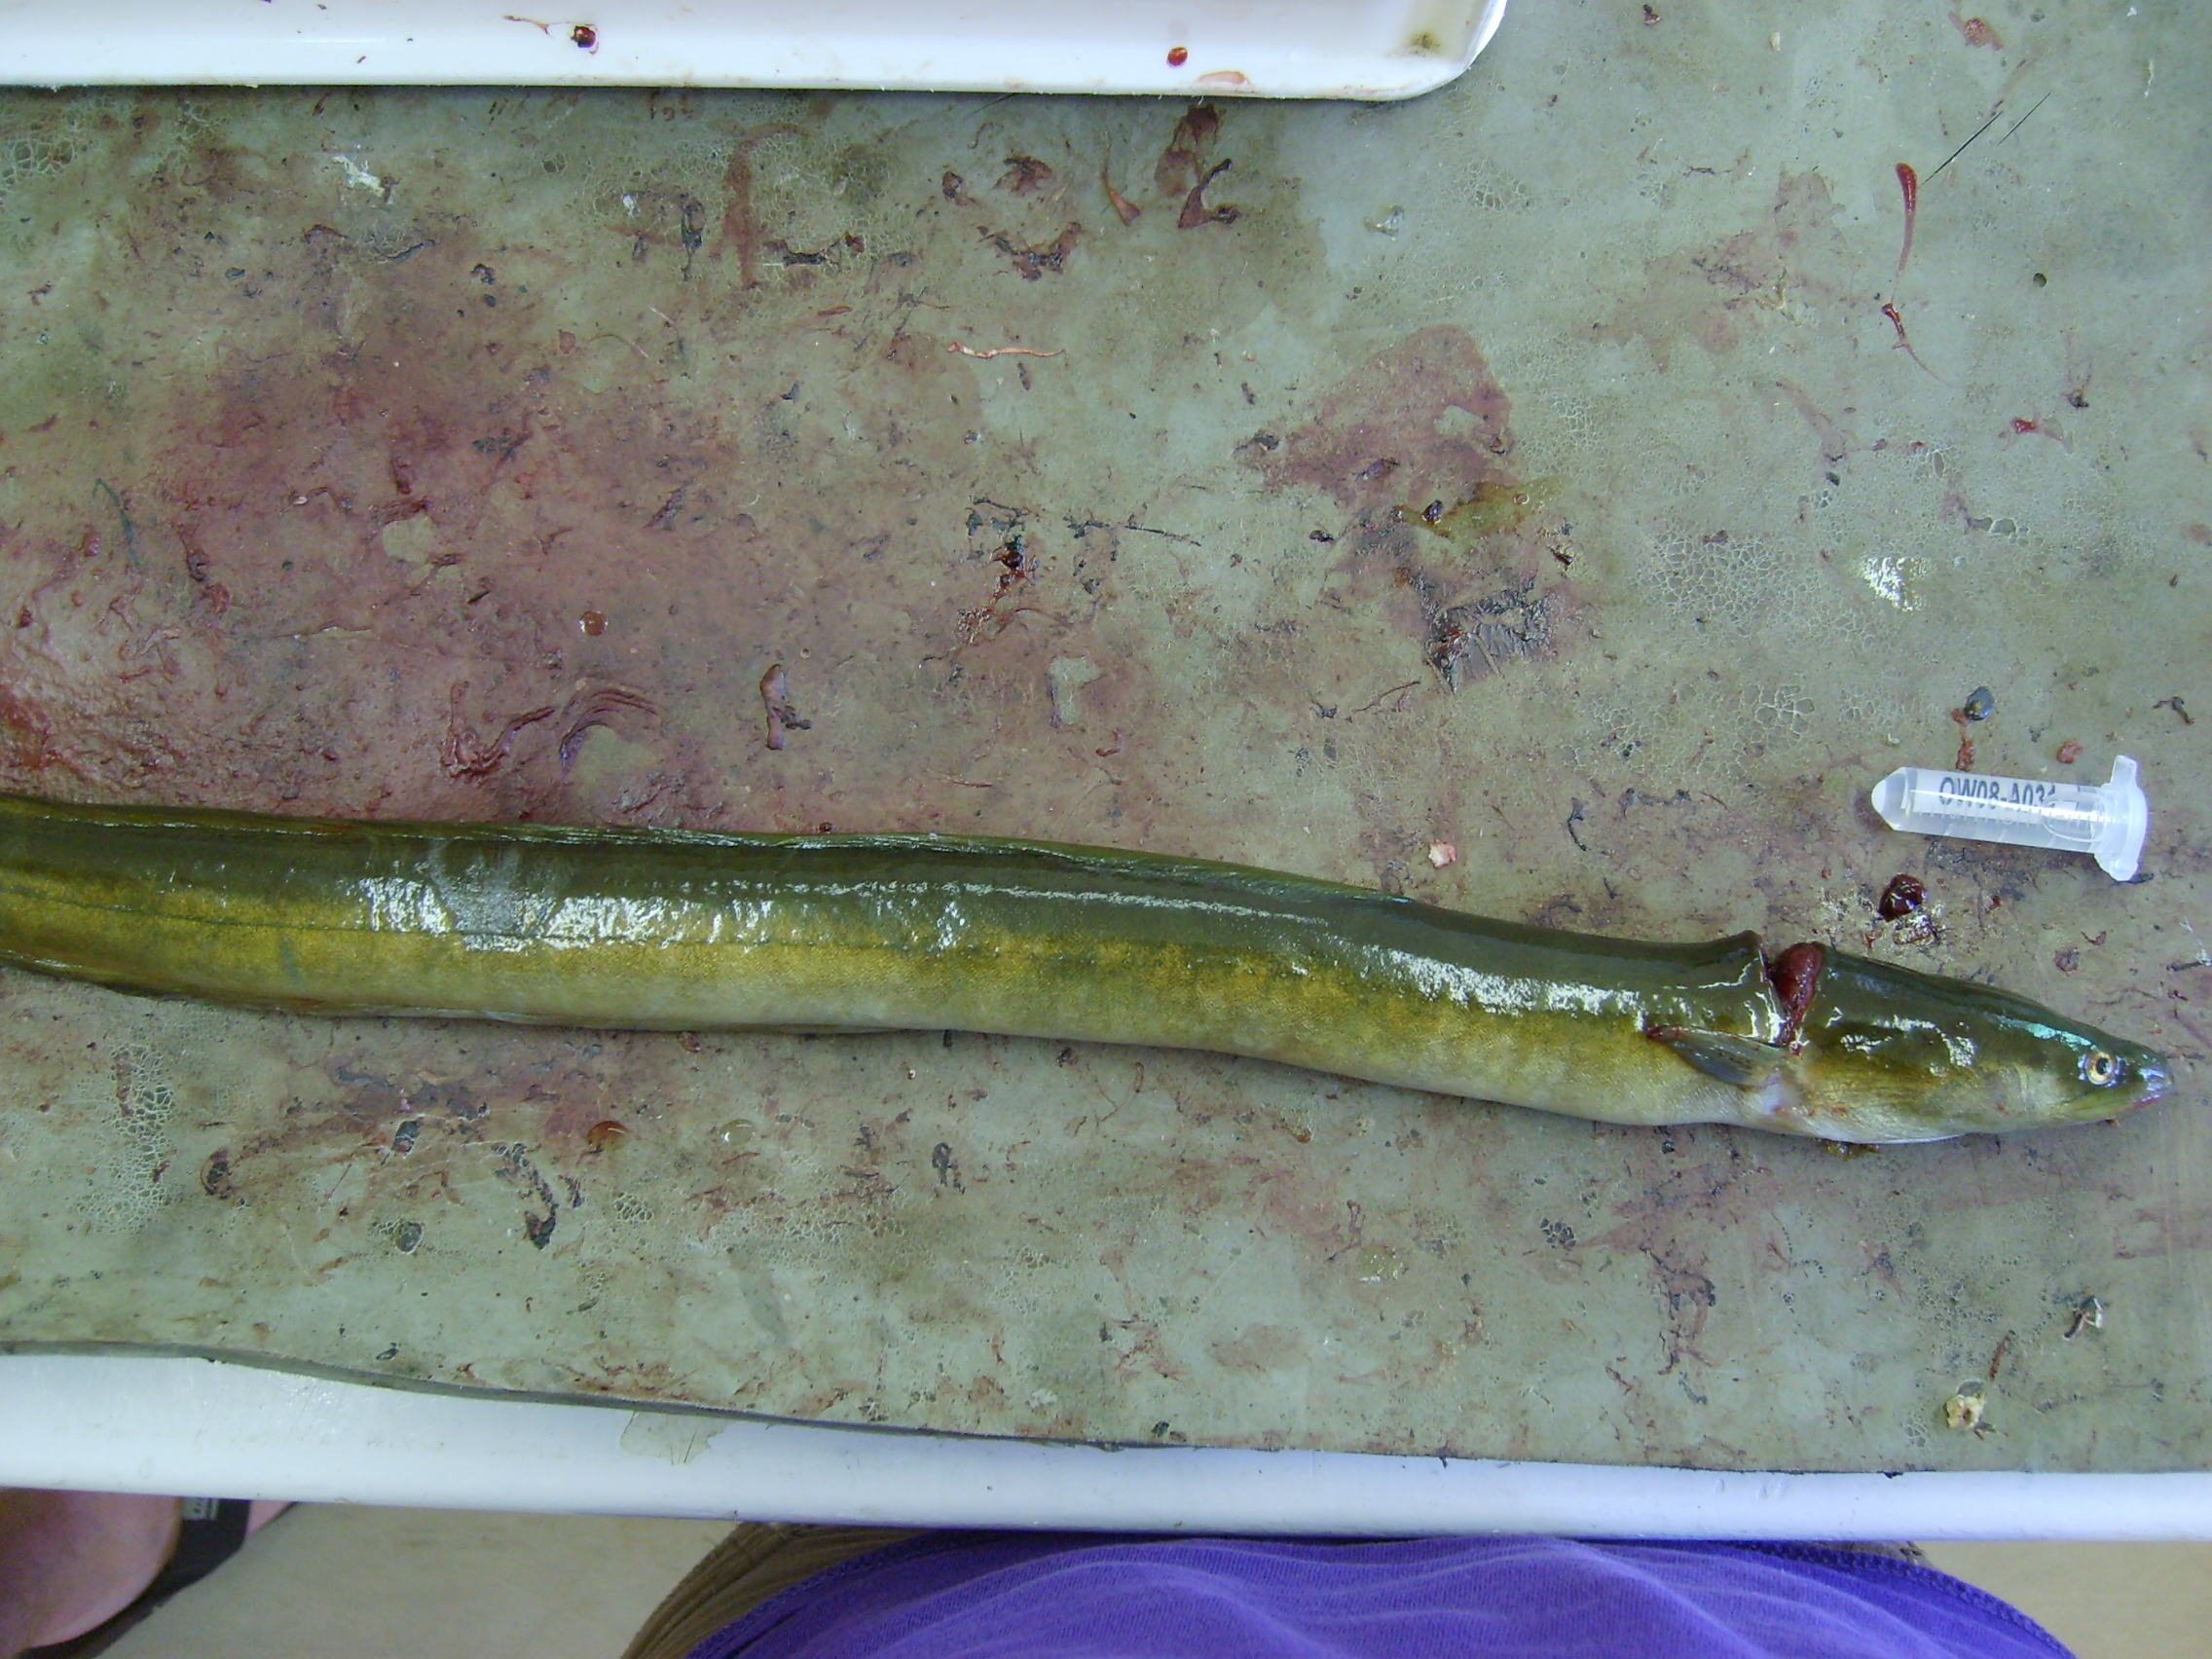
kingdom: Animalia
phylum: Chordata
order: Anguilliformes
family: Anguillidae
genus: Anguilla
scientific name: Anguilla mossambica
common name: African longfin eel
